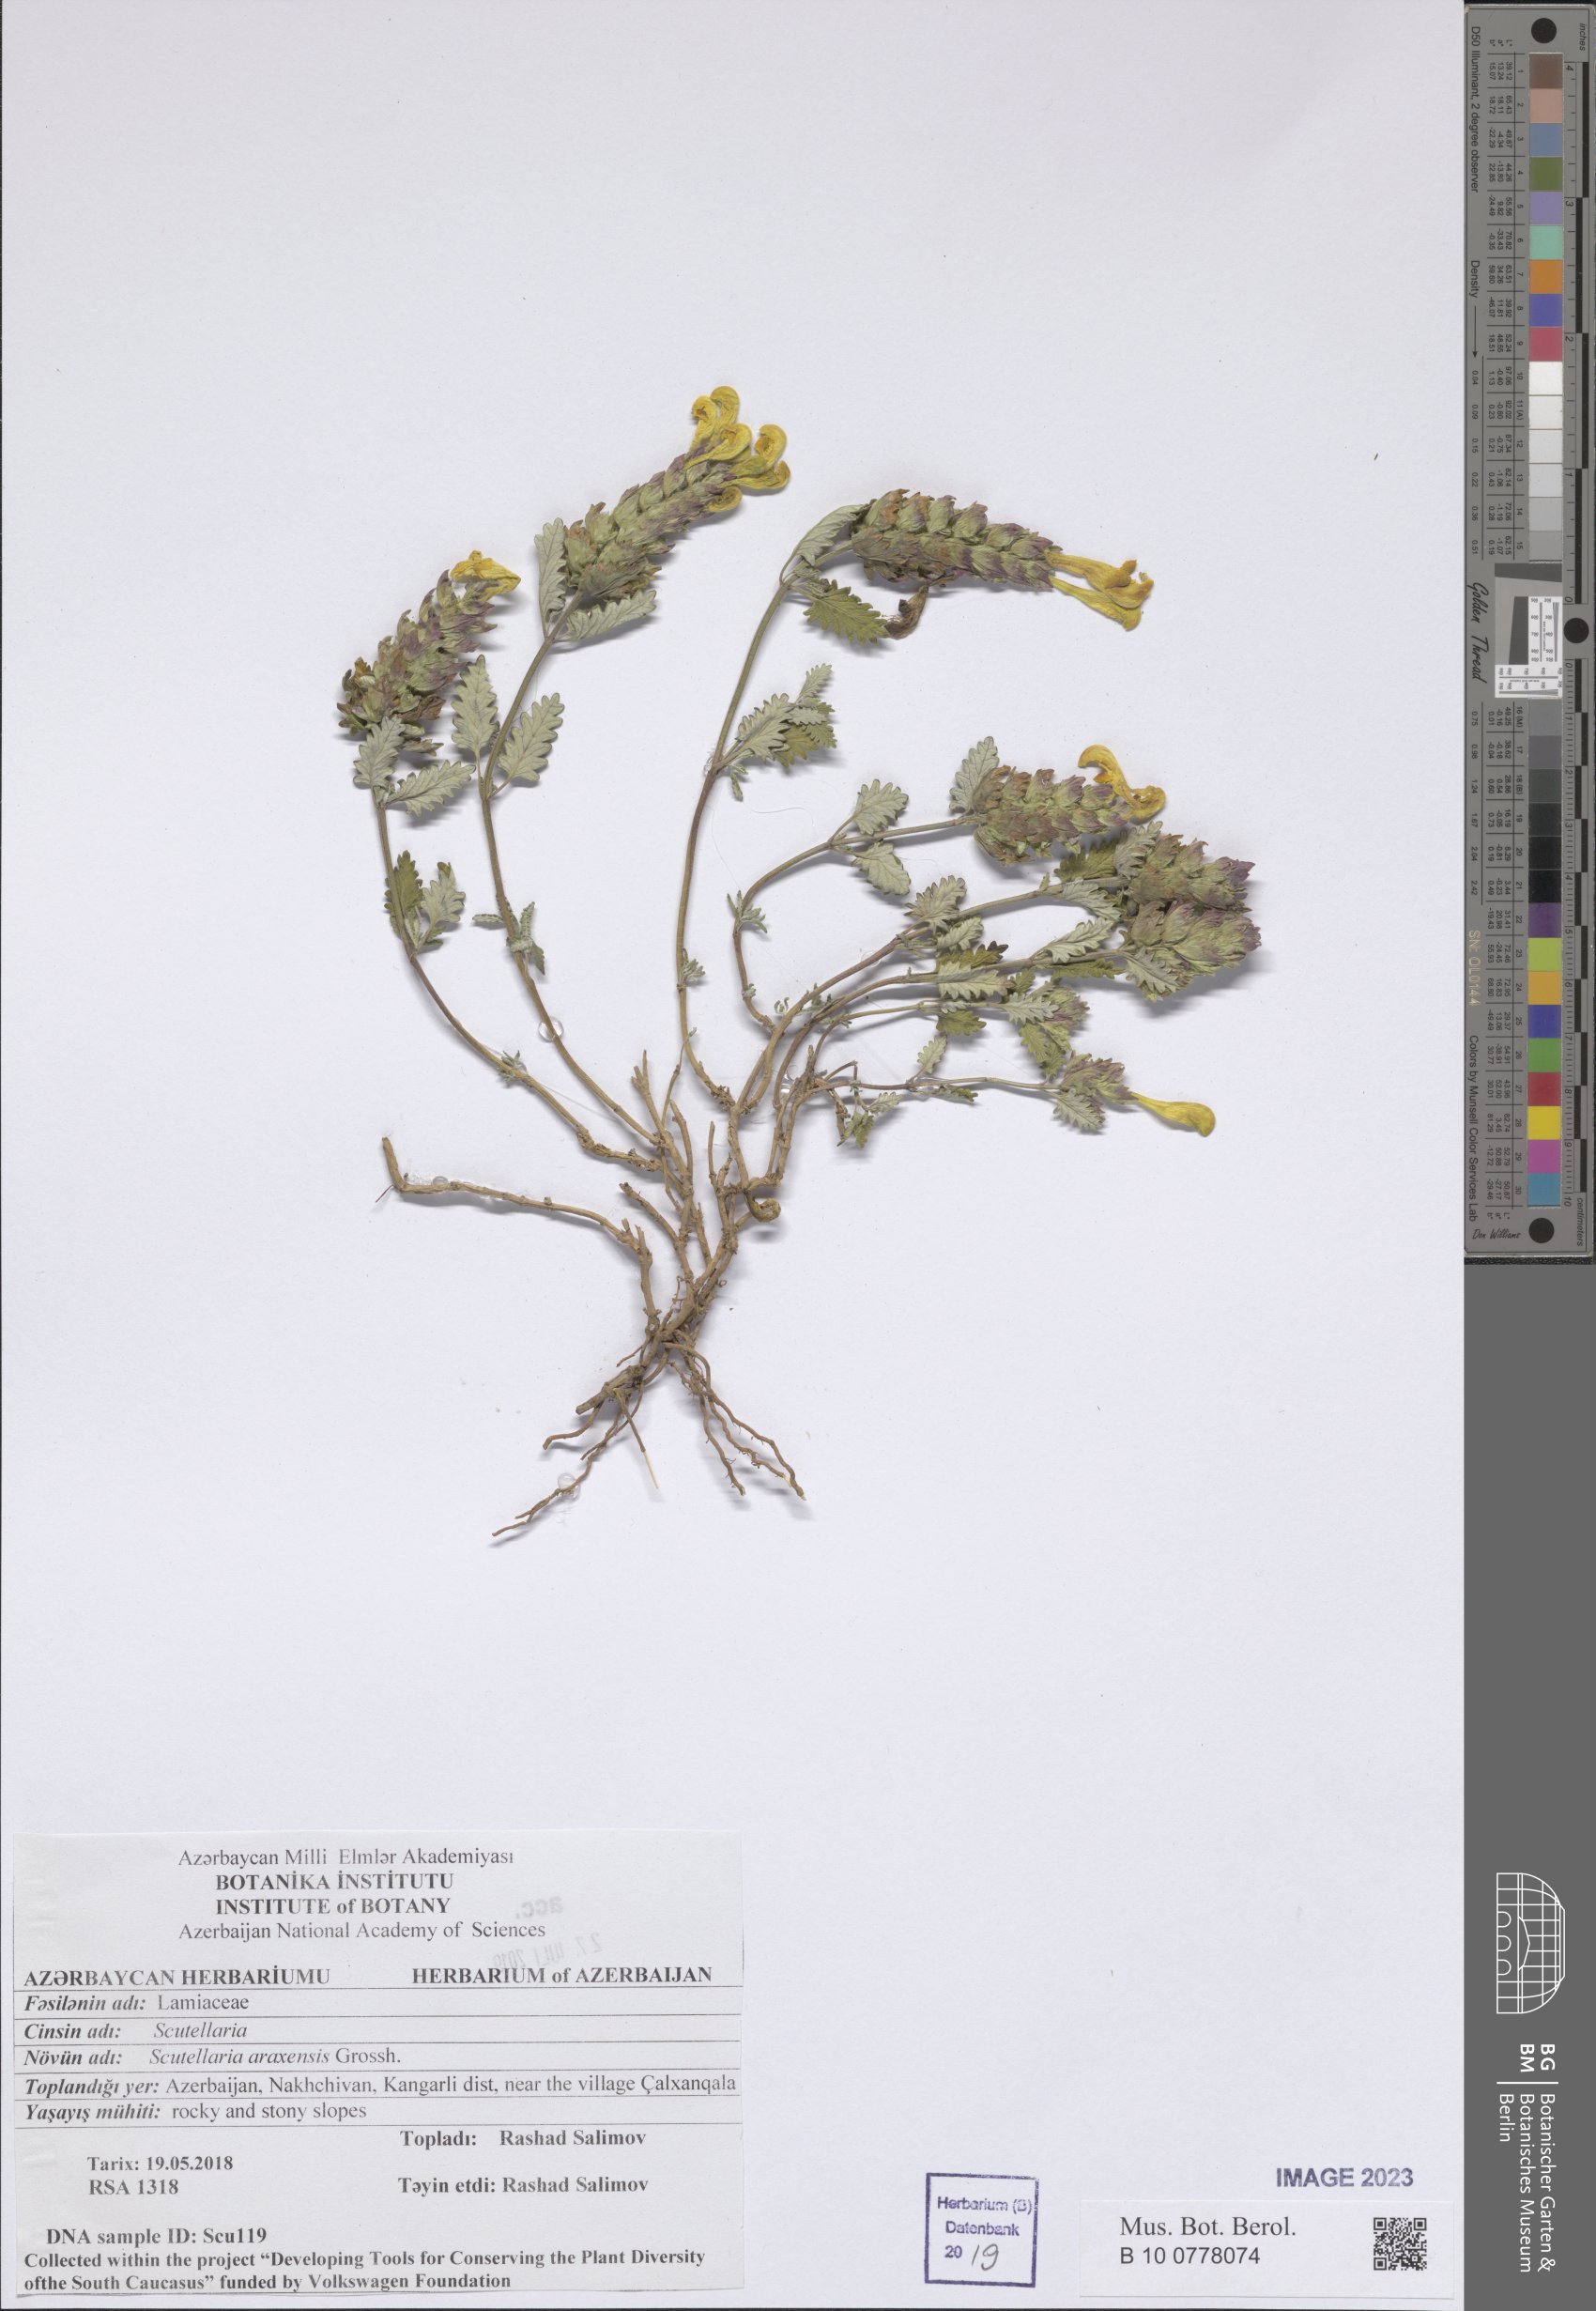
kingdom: Plantae
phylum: Tracheophyta
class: Magnoliopsida
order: Lamiales
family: Lamiaceae
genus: Scutellaria
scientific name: Scutellaria araxensis
